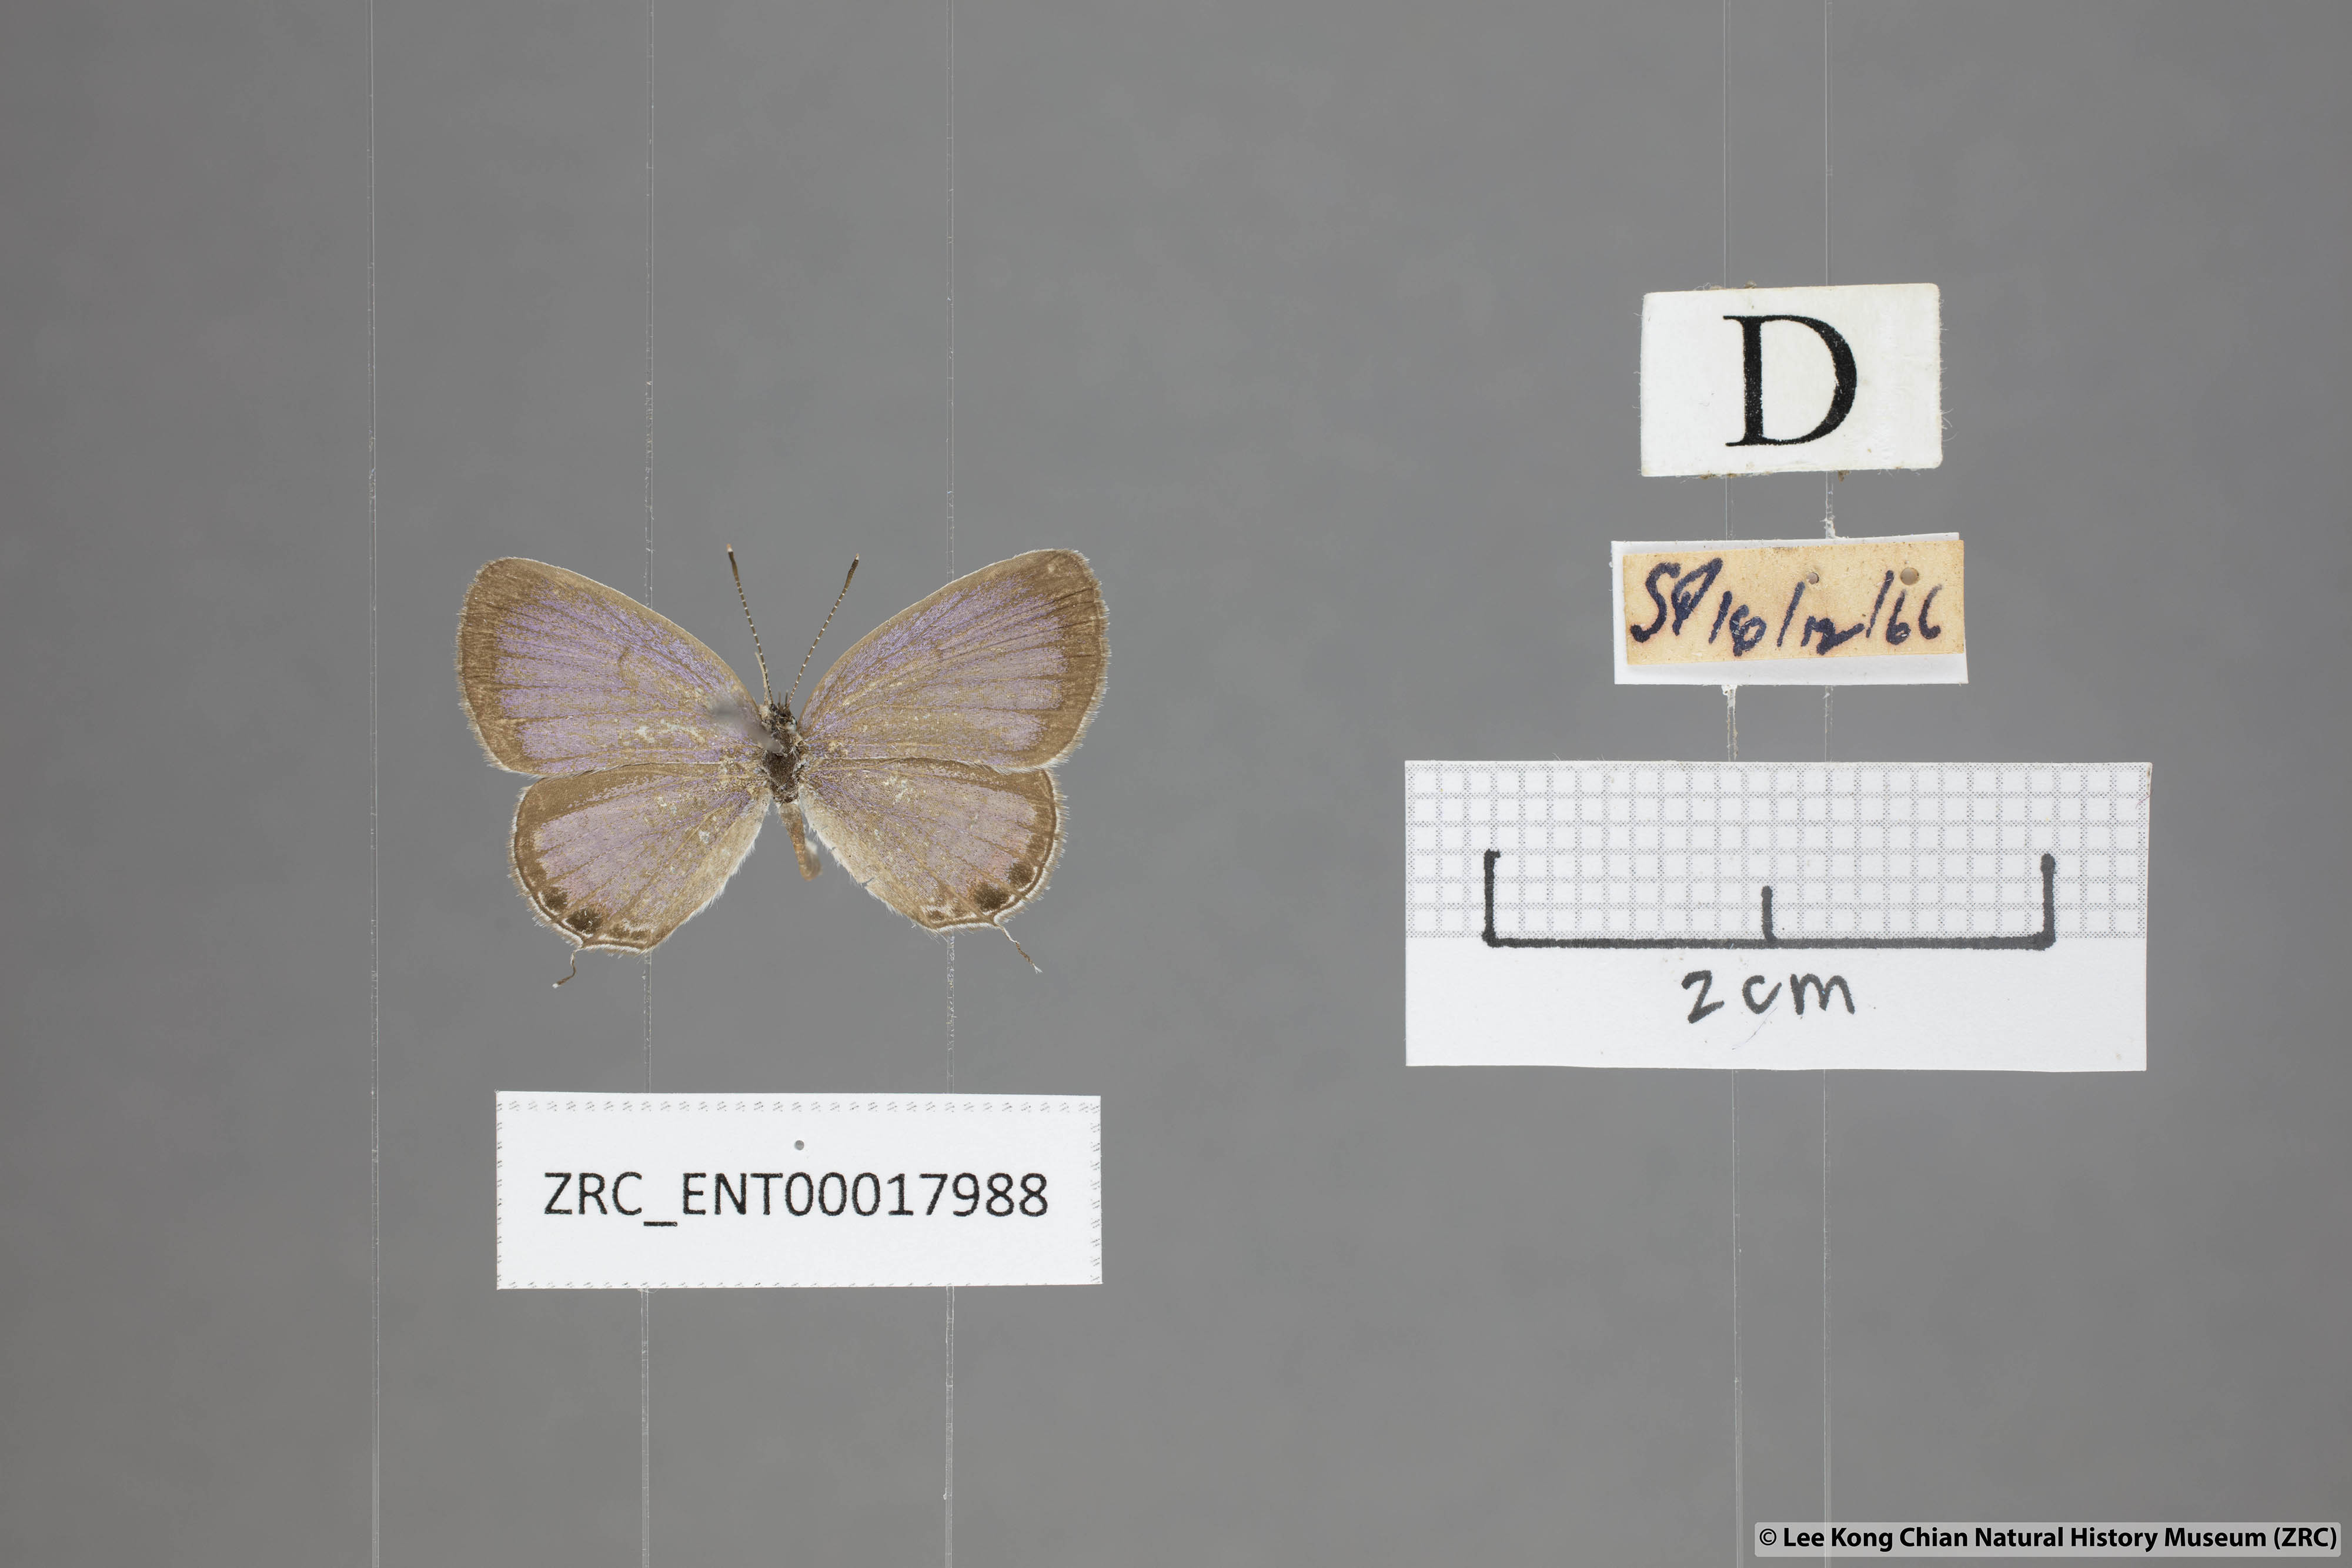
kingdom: Animalia
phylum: Arthropoda
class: Insecta
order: Lepidoptera
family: Lycaenidae
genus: Everes
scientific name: Everes lacturnus
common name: Orange-tipped pea-blue
